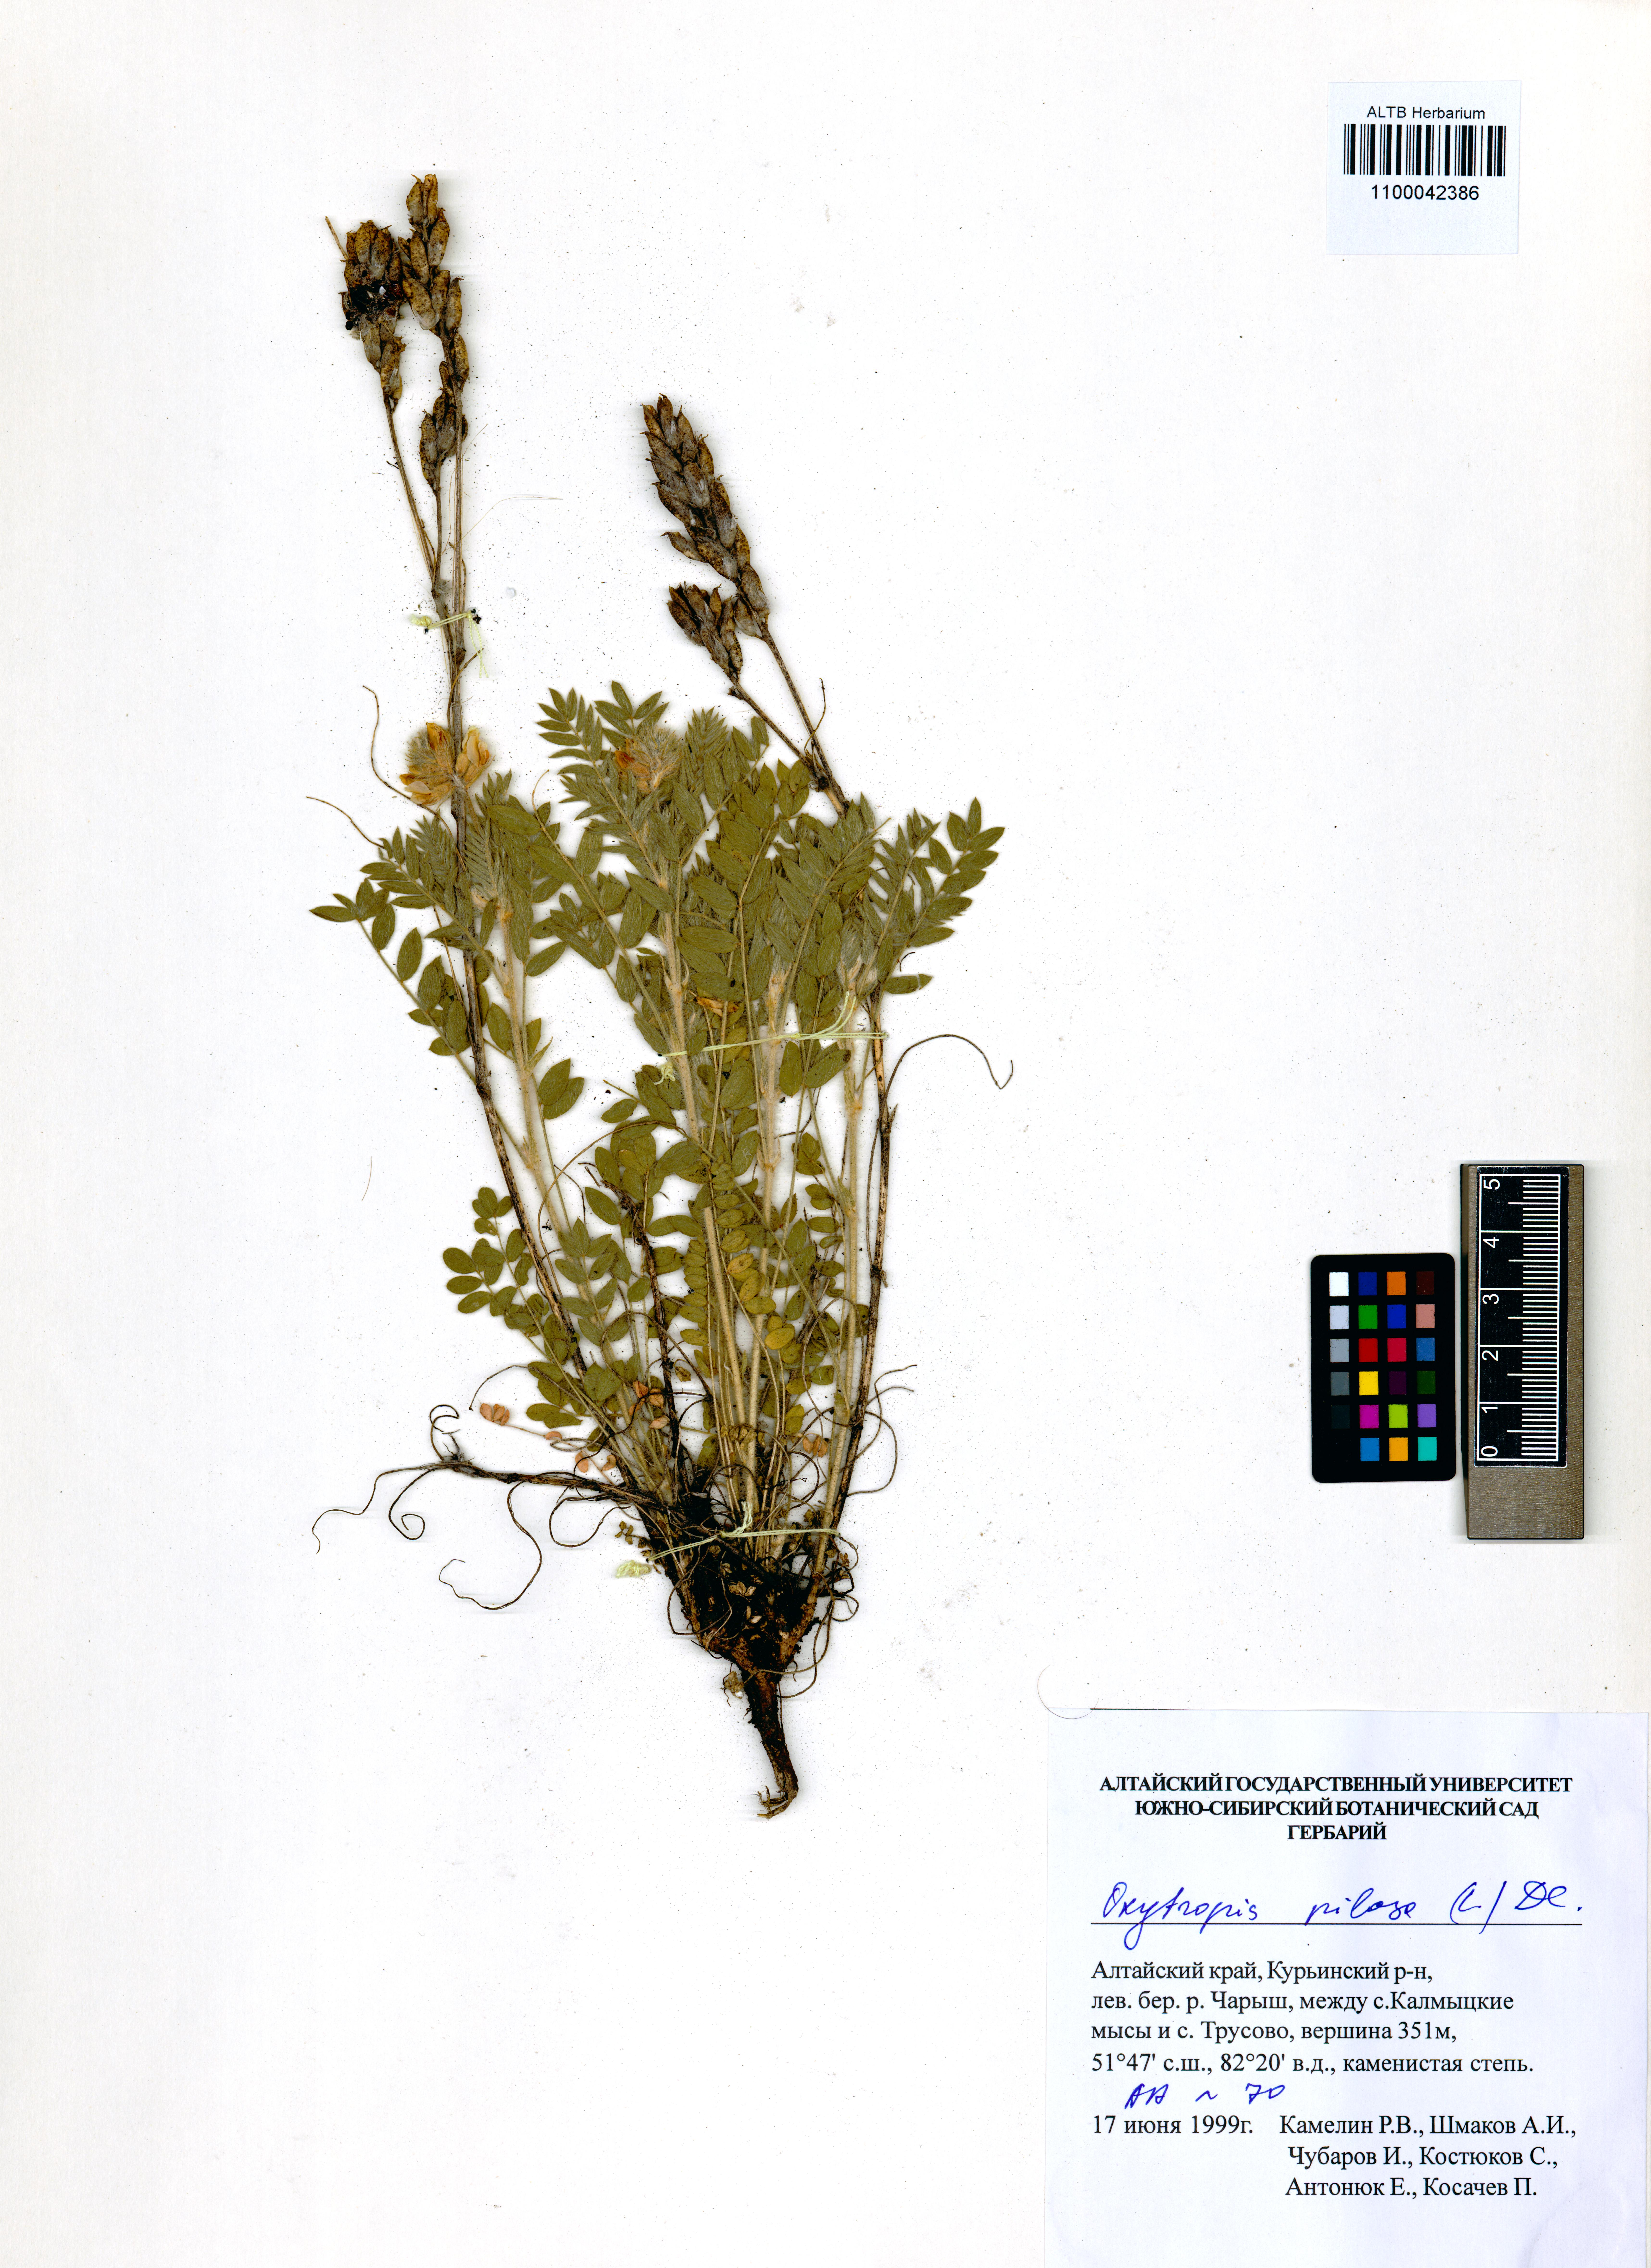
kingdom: Plantae
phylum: Tracheophyta
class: Magnoliopsida
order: Fabales
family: Fabaceae
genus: Oxytropis
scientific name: Oxytropis pilosa
